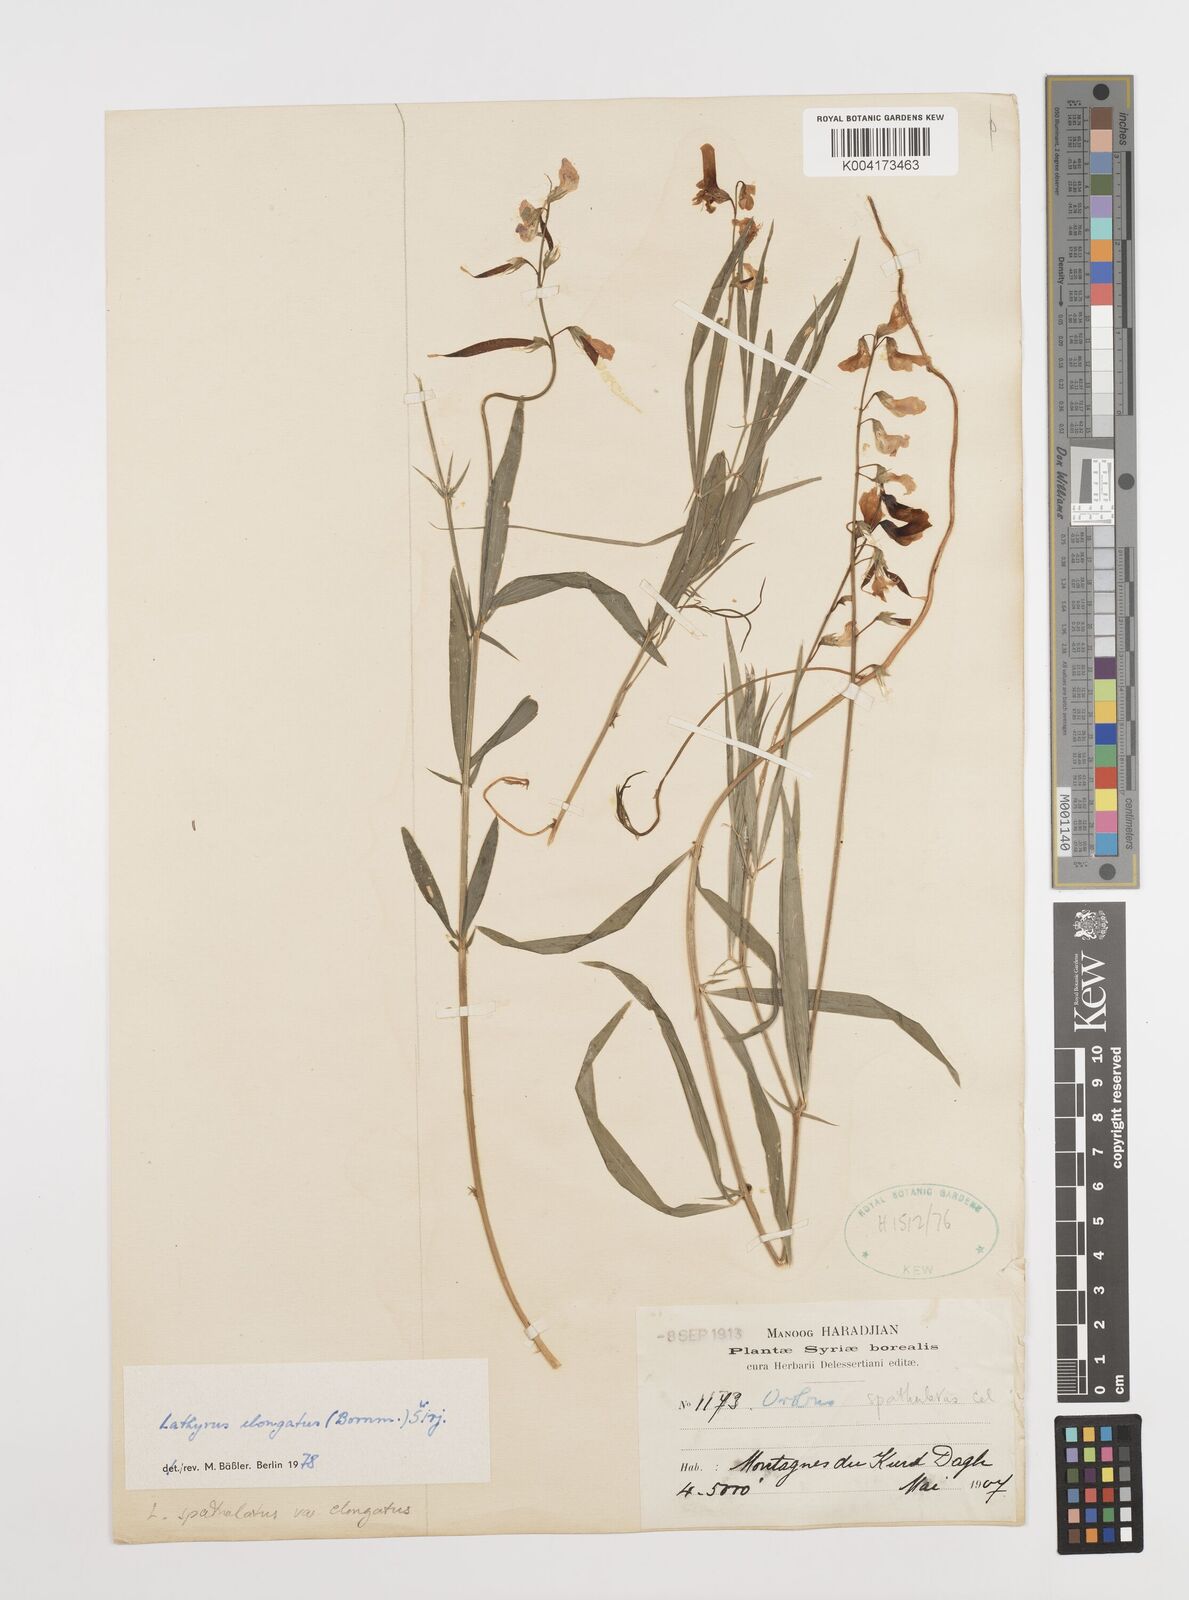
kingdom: Plantae
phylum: Tracheophyta
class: Magnoliopsida
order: Fabales
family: Fabaceae
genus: Lathyrus
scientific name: Lathyrus elongatus
